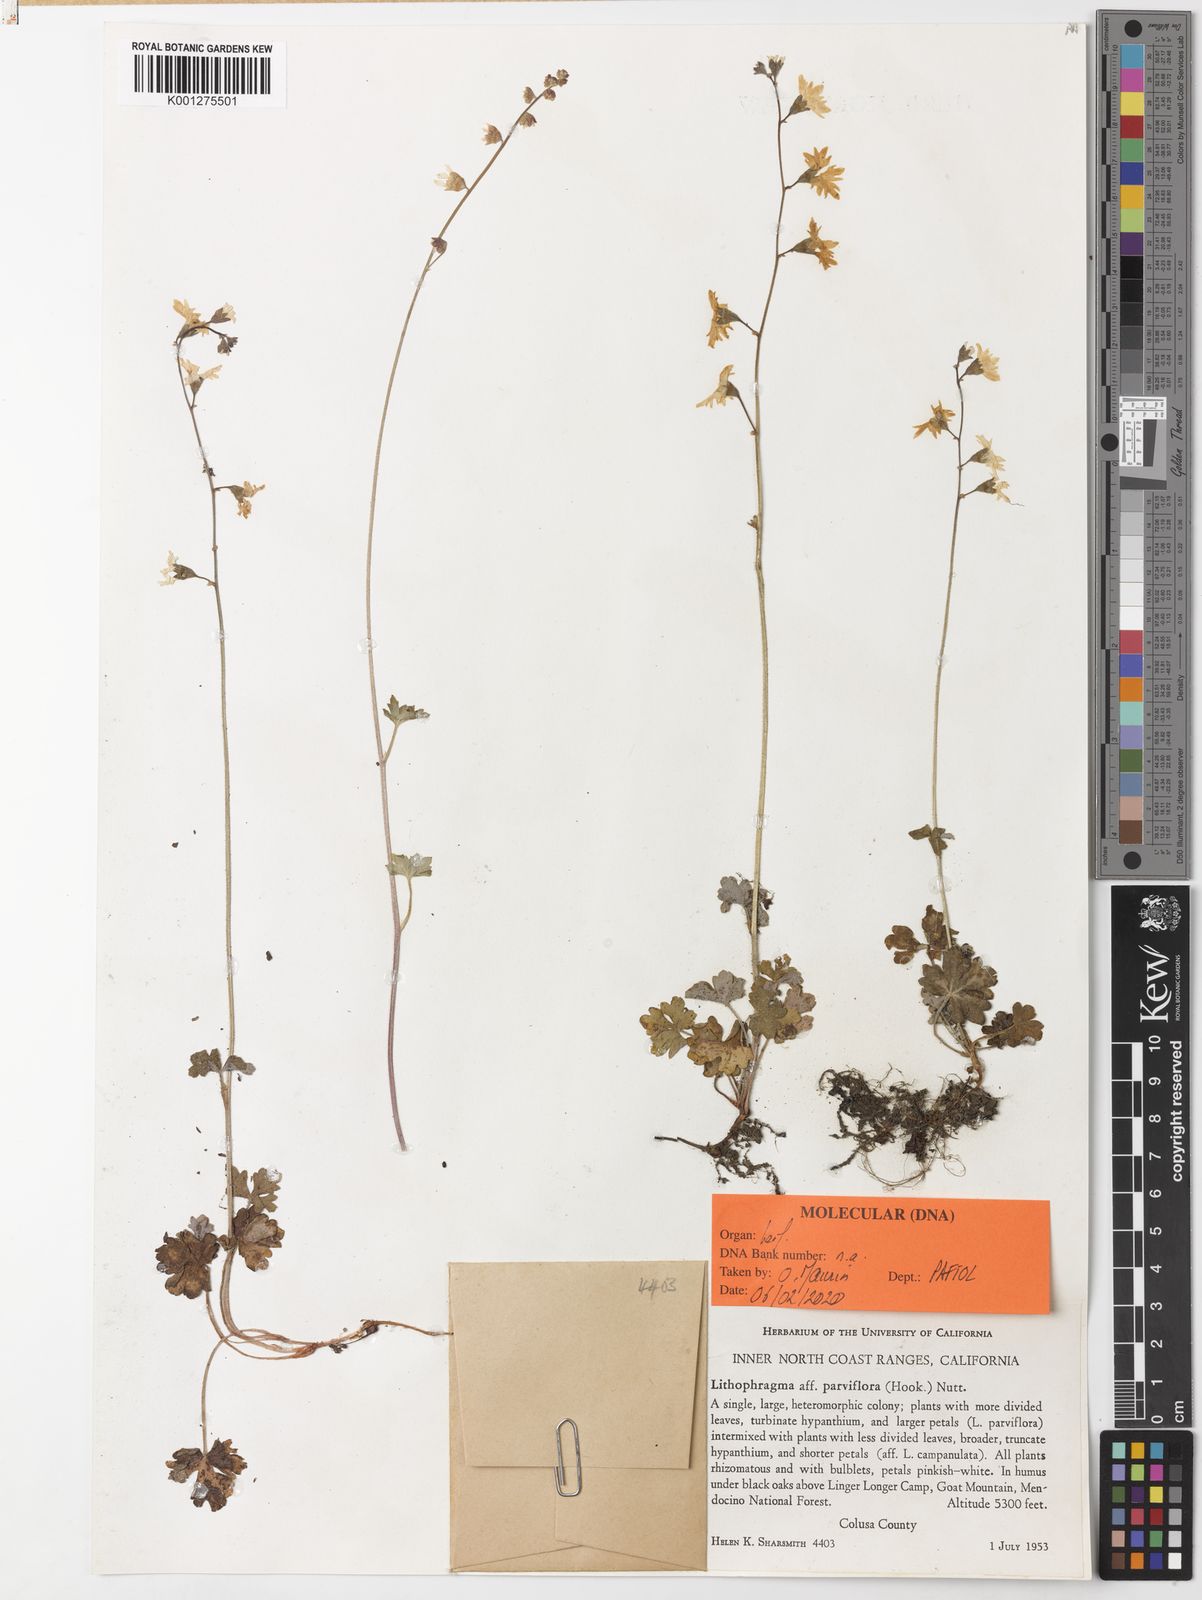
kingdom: Plantae
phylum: Tracheophyta
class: Magnoliopsida
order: Saxifragales
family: Saxifragaceae
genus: Lithophragma
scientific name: Lithophragma parviflorum
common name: Small-flowered fringe-cup
